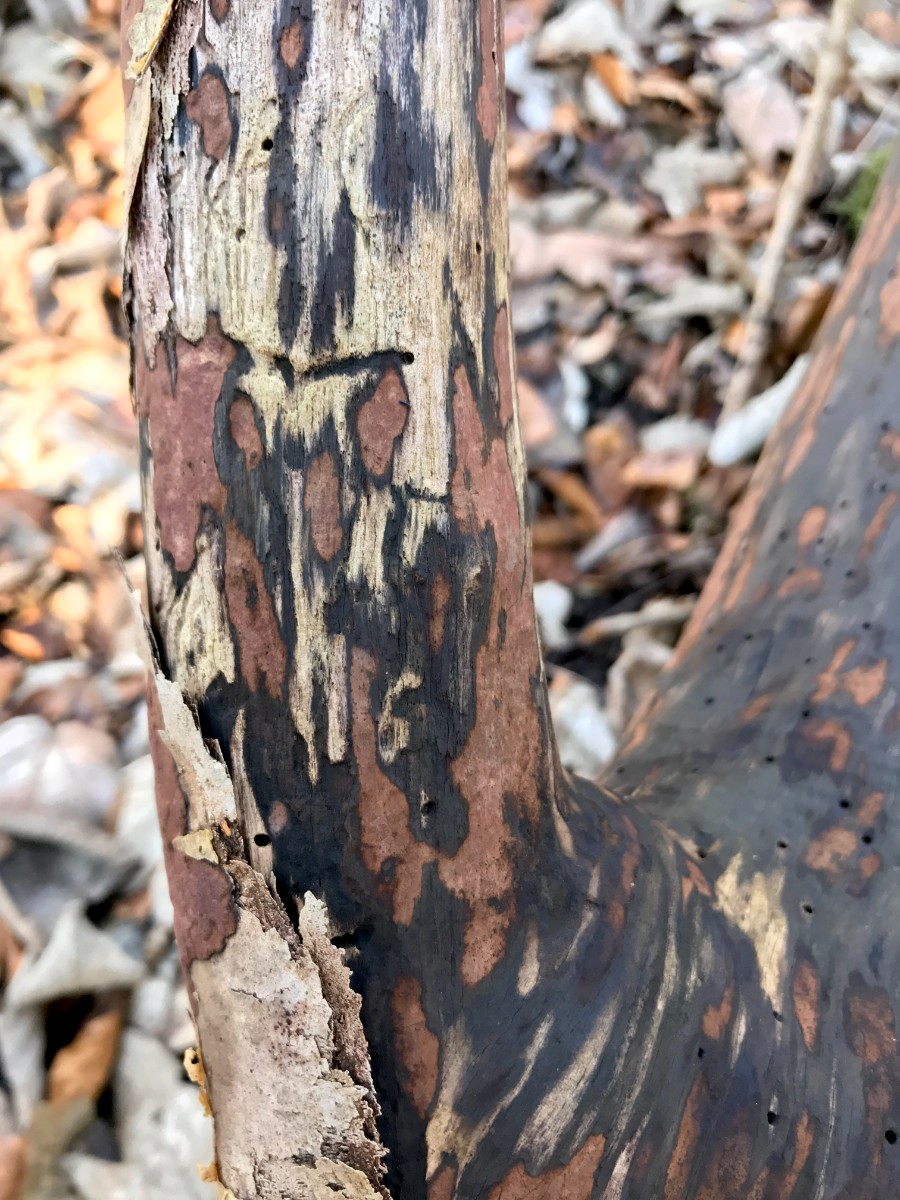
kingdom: Fungi
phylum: Ascomycota
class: Sordariomycetes
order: Xylariales
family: Hypoxylaceae
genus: Hypoxylon
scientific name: Hypoxylon petriniae
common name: nedsænket kulbær
